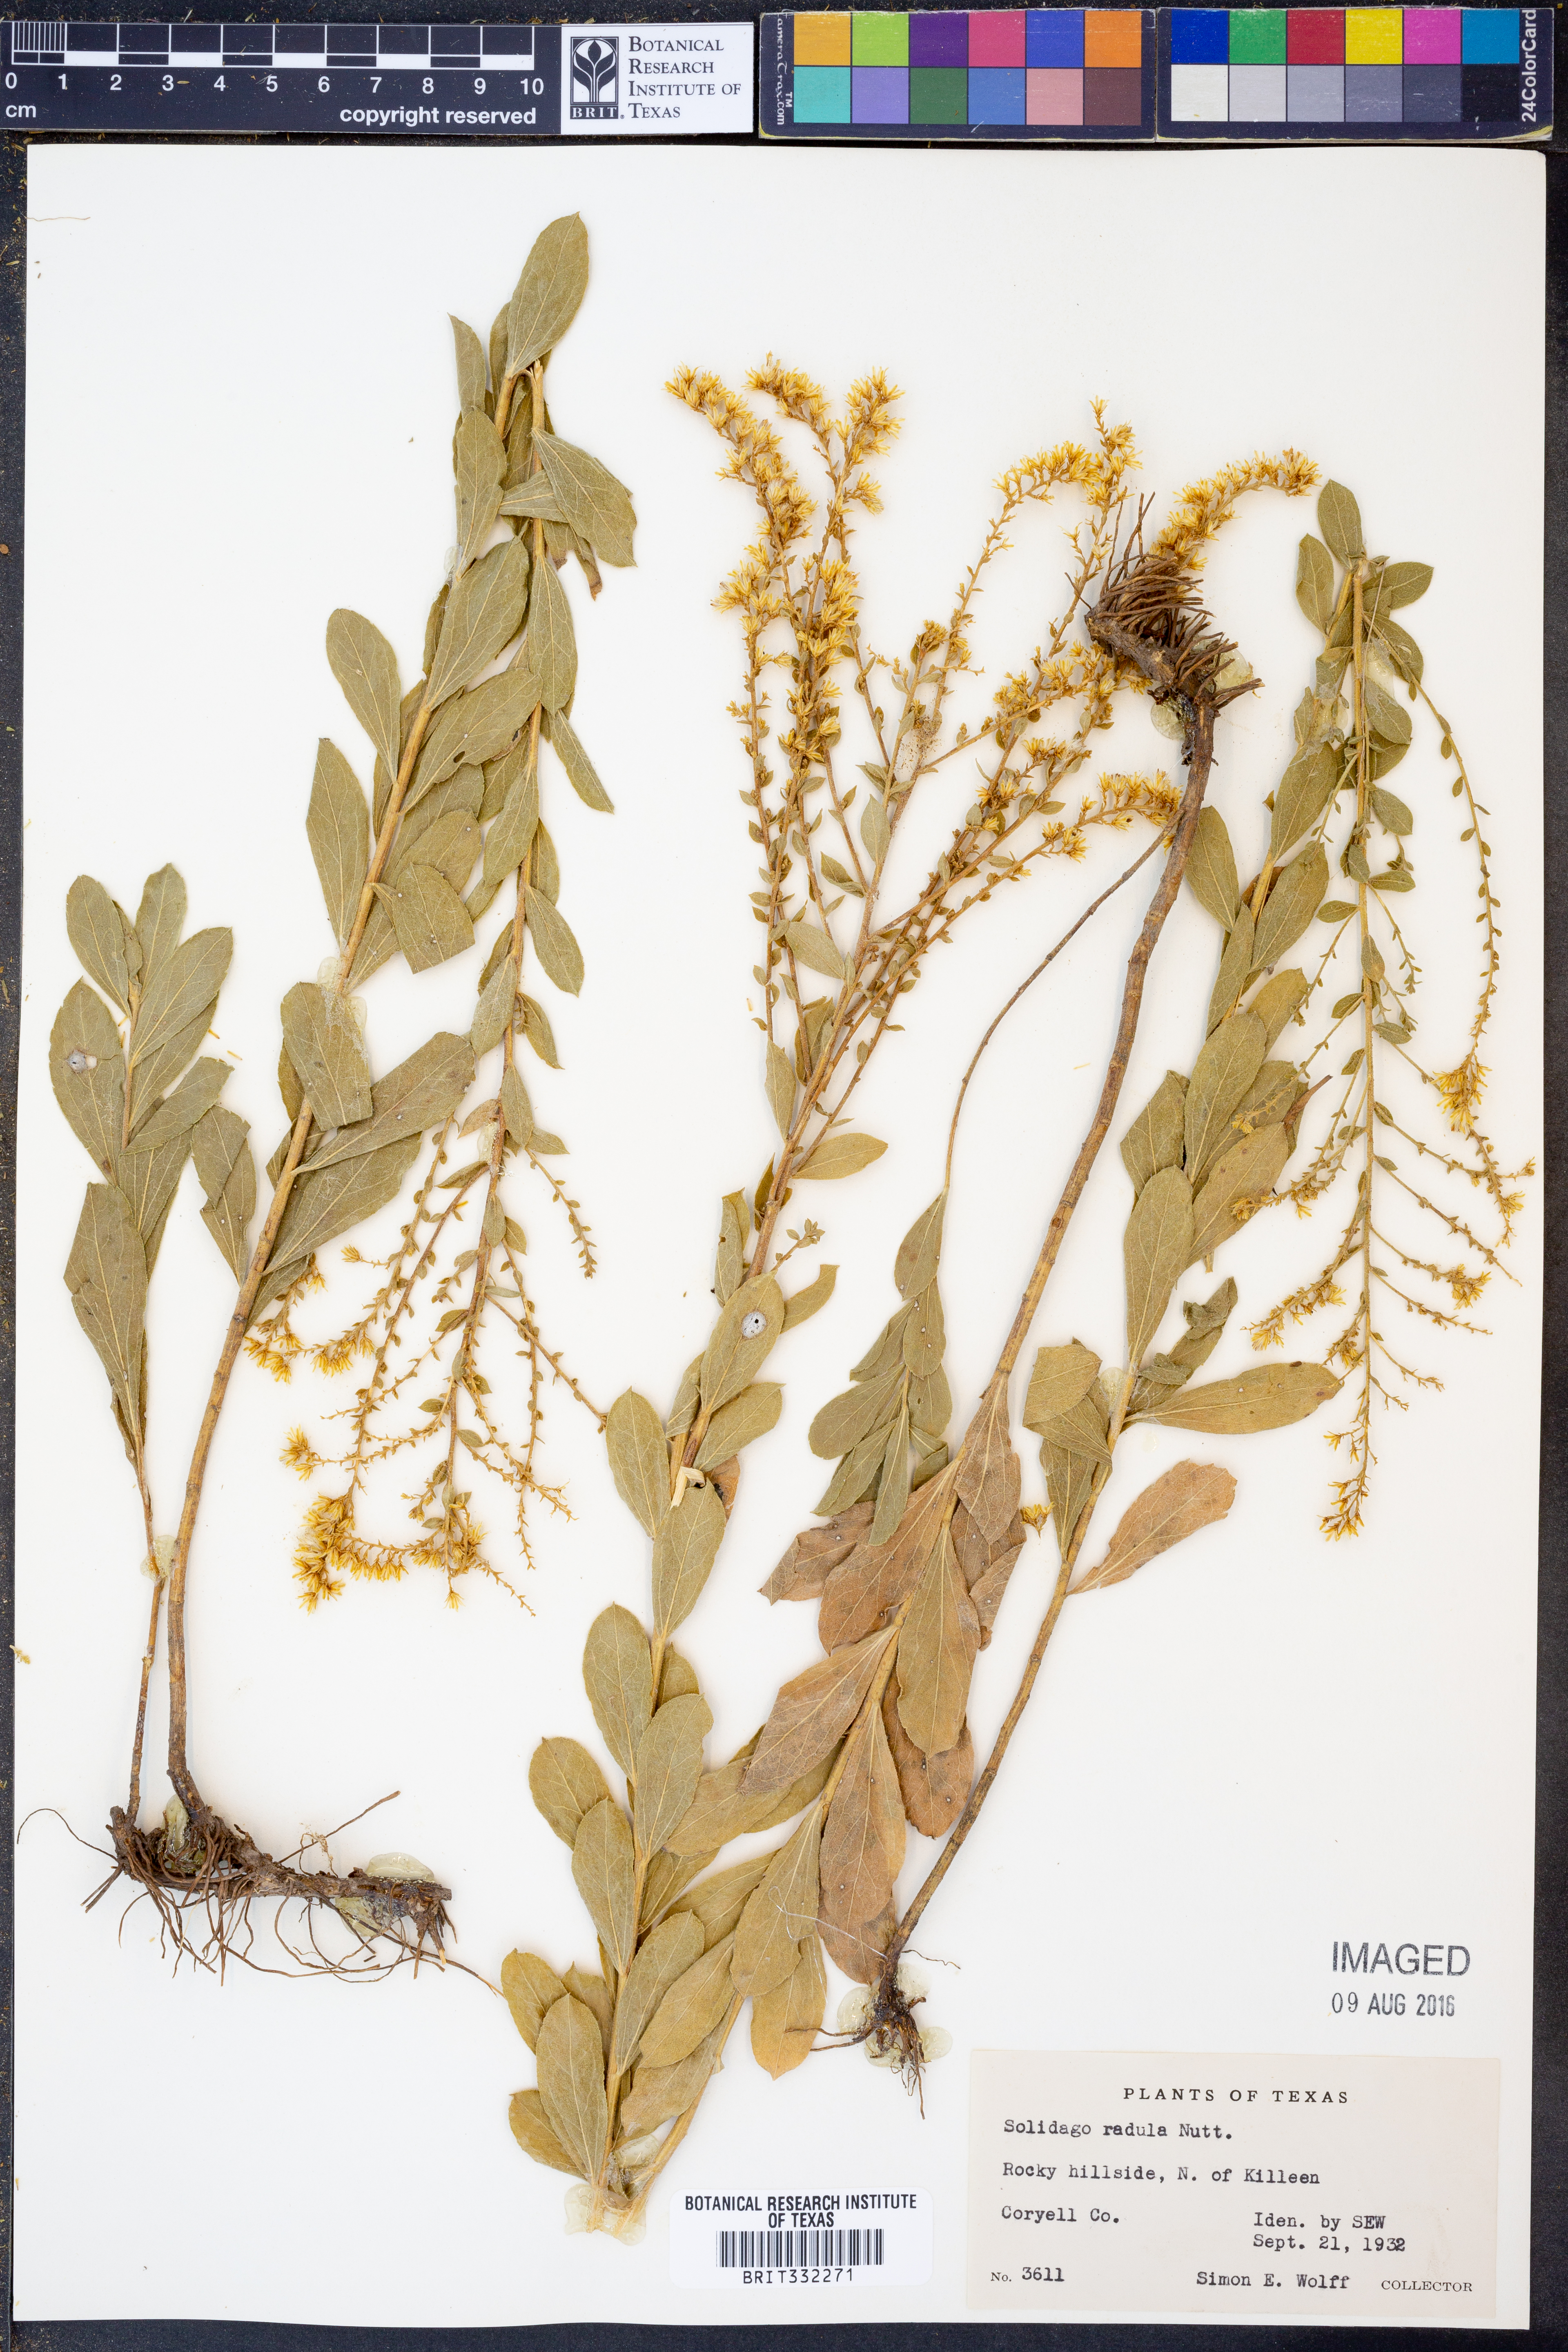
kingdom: Plantae
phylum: Tracheophyta
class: Magnoliopsida
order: Asterales
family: Asteraceae
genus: Solidago
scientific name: Solidago radula
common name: Western rough goldenrod
